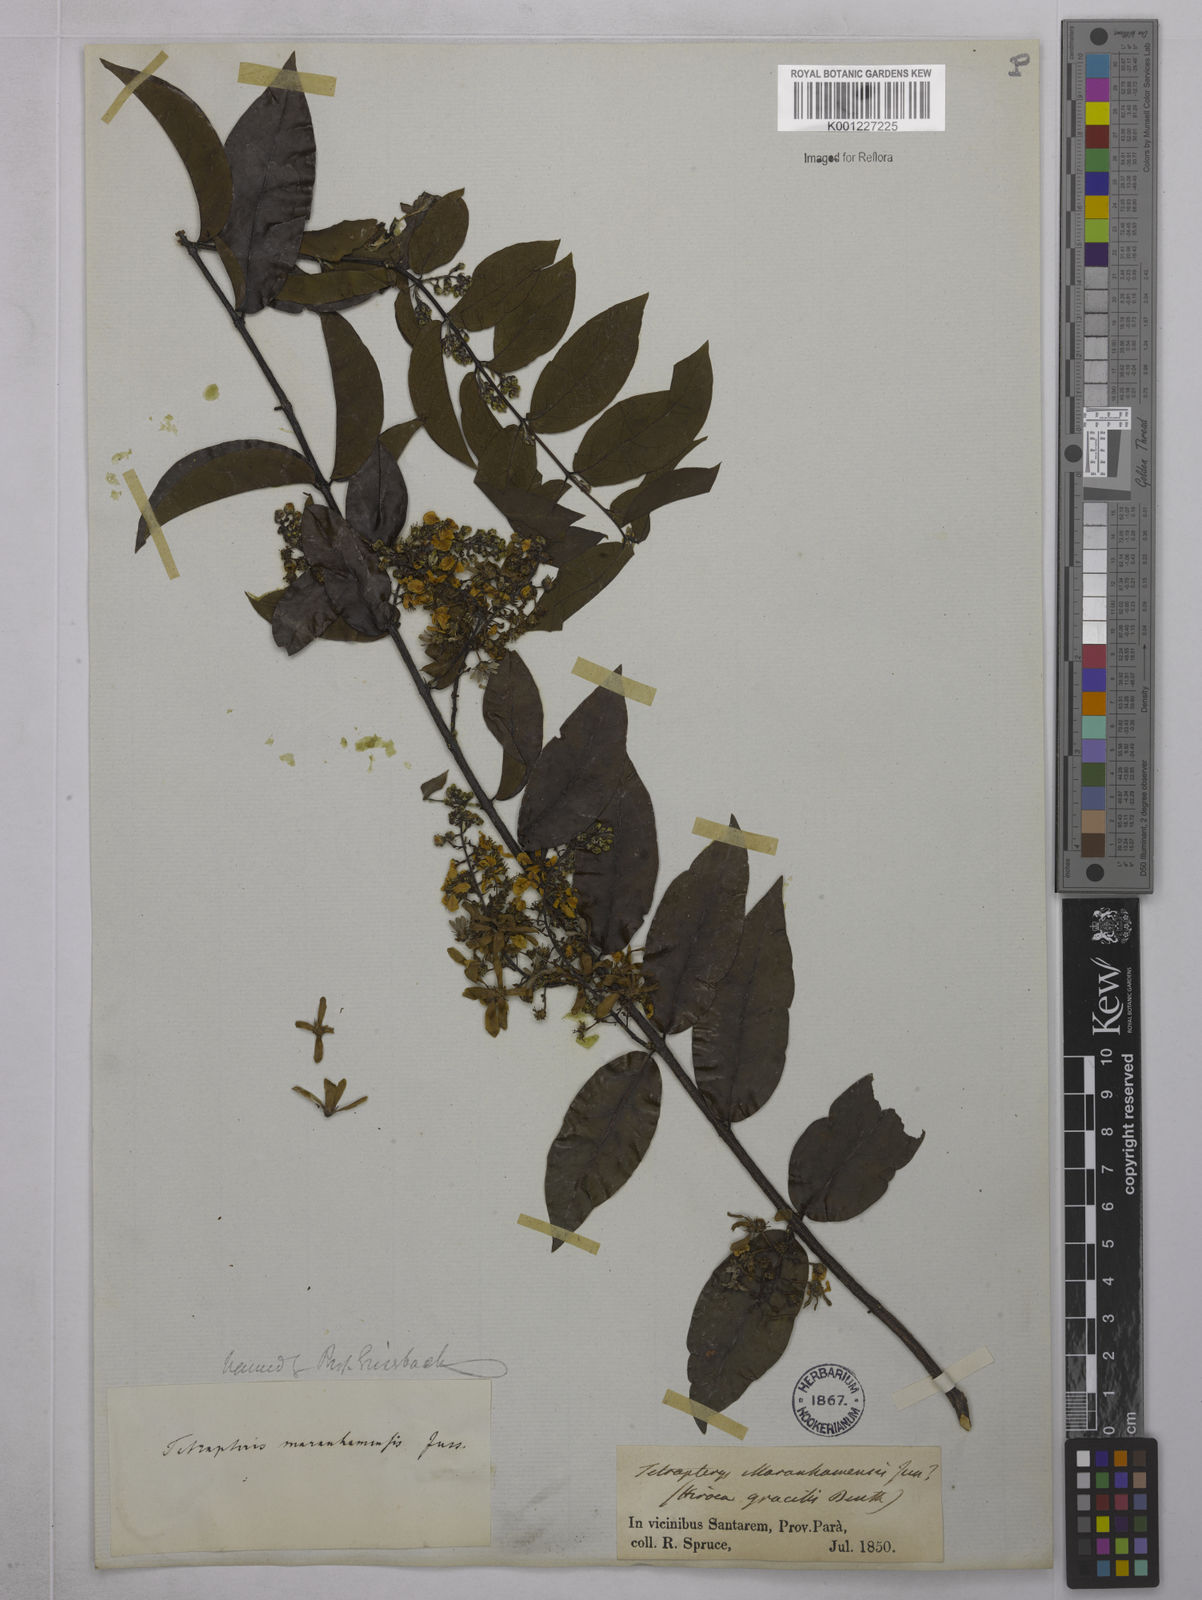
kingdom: Plantae
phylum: Tracheophyta
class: Magnoliopsida
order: Malpighiales
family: Malpighiaceae
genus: Glicophyllum
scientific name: Glicophyllum maranhamense
